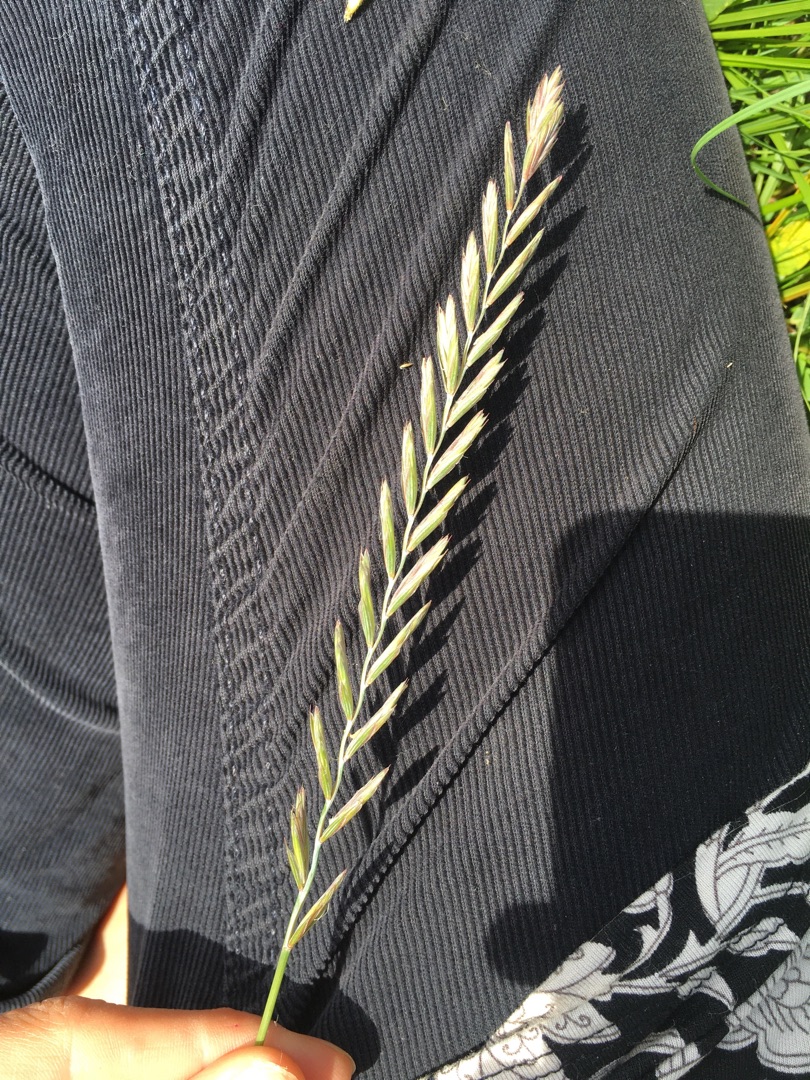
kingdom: Plantae
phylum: Tracheophyta
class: Liliopsida
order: Poales
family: Poaceae
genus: Elymus
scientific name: Elymus repens
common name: Almindelig kvik
